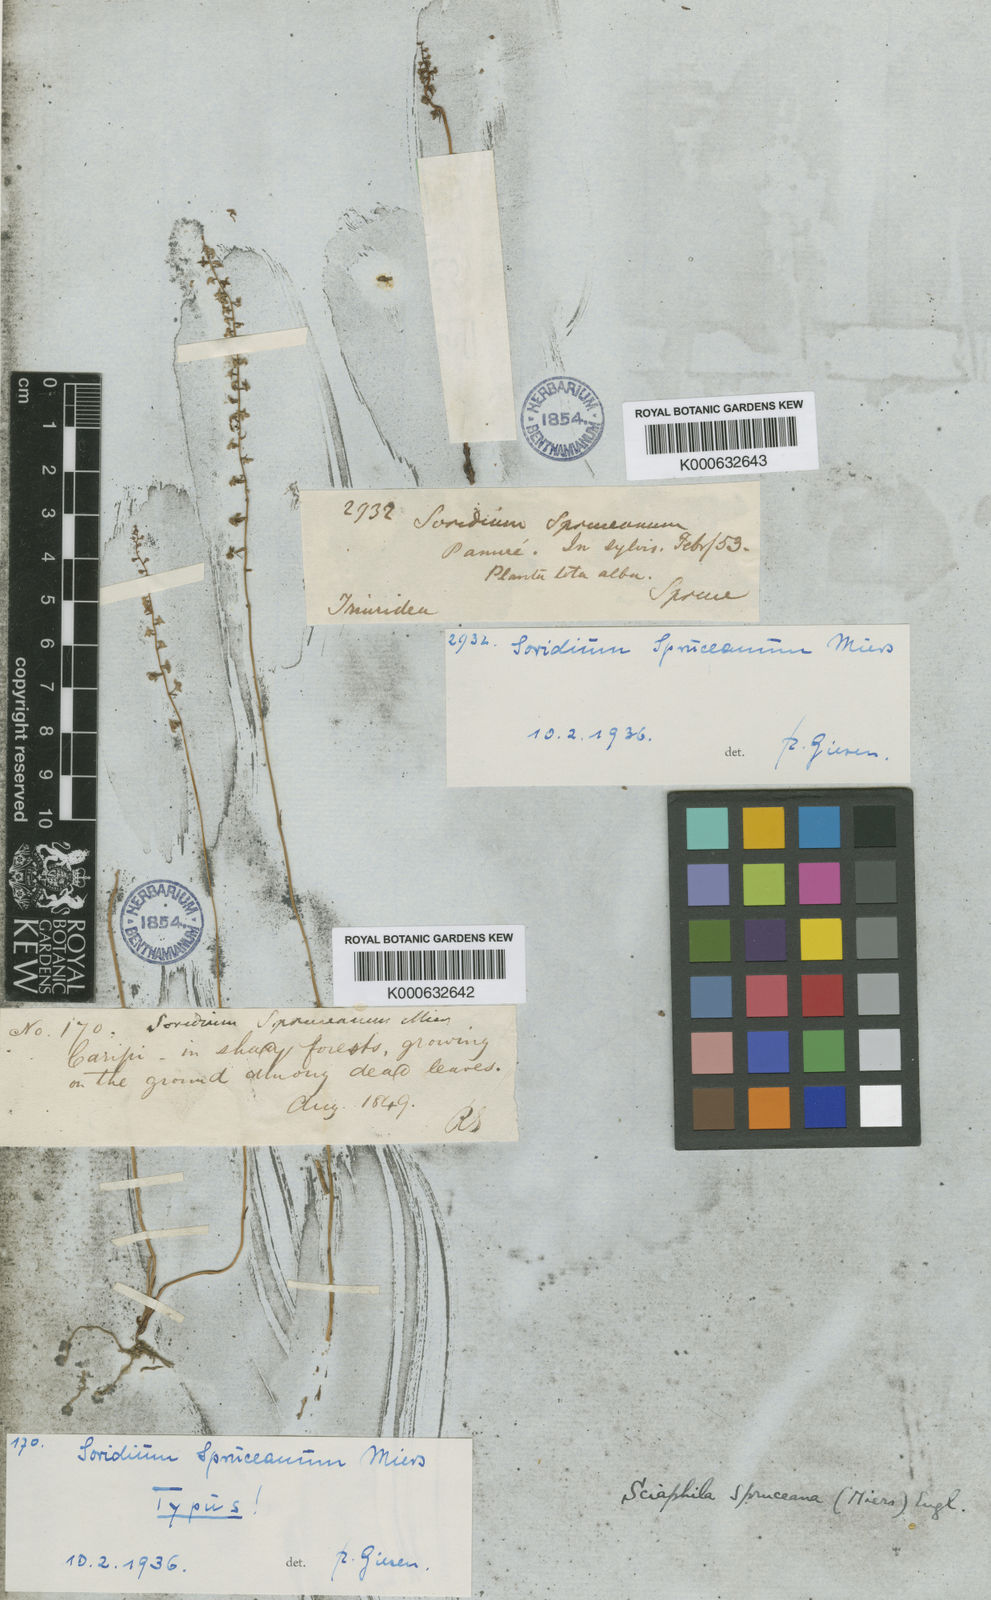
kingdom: Plantae
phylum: Tracheophyta
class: Liliopsida
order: Pandanales
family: Triuridaceae
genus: Soridium
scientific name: Soridium spruceanum
